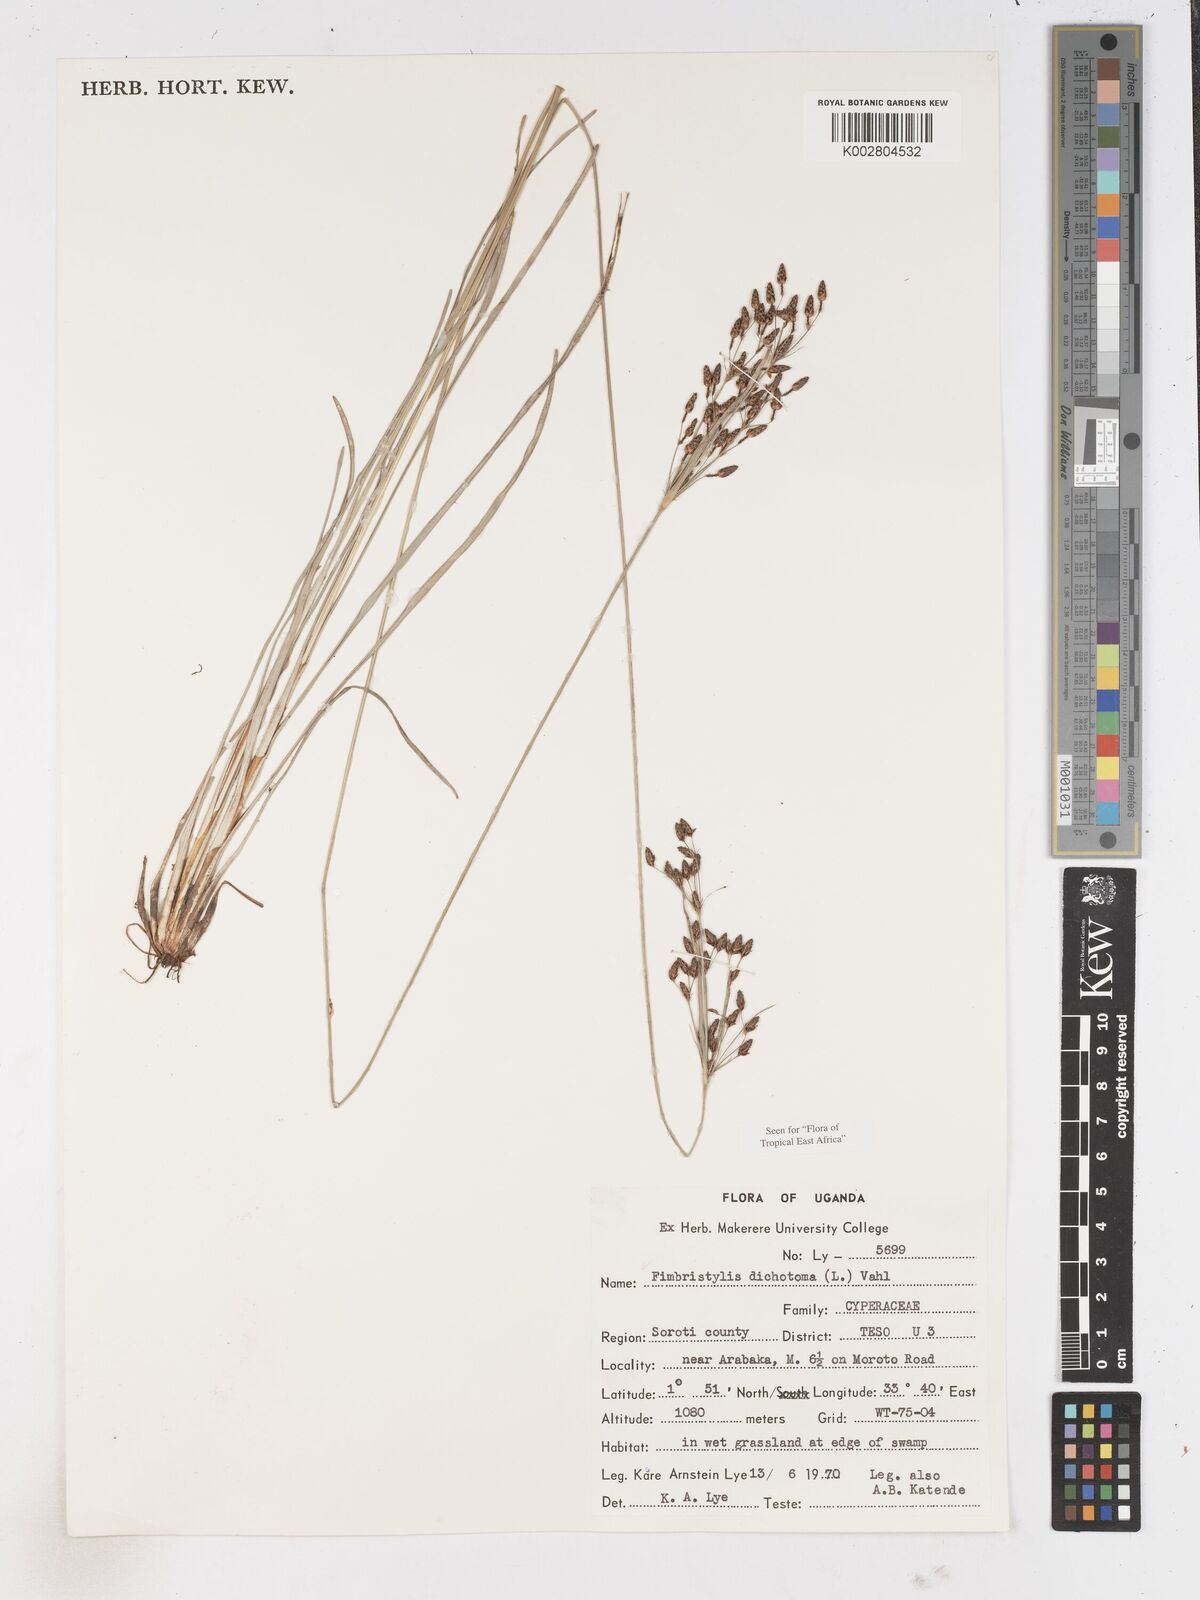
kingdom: Plantae
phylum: Tracheophyta
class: Liliopsida
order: Poales
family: Cyperaceae
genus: Fimbristylis
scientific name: Fimbristylis dichotoma
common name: Forked fimbry
